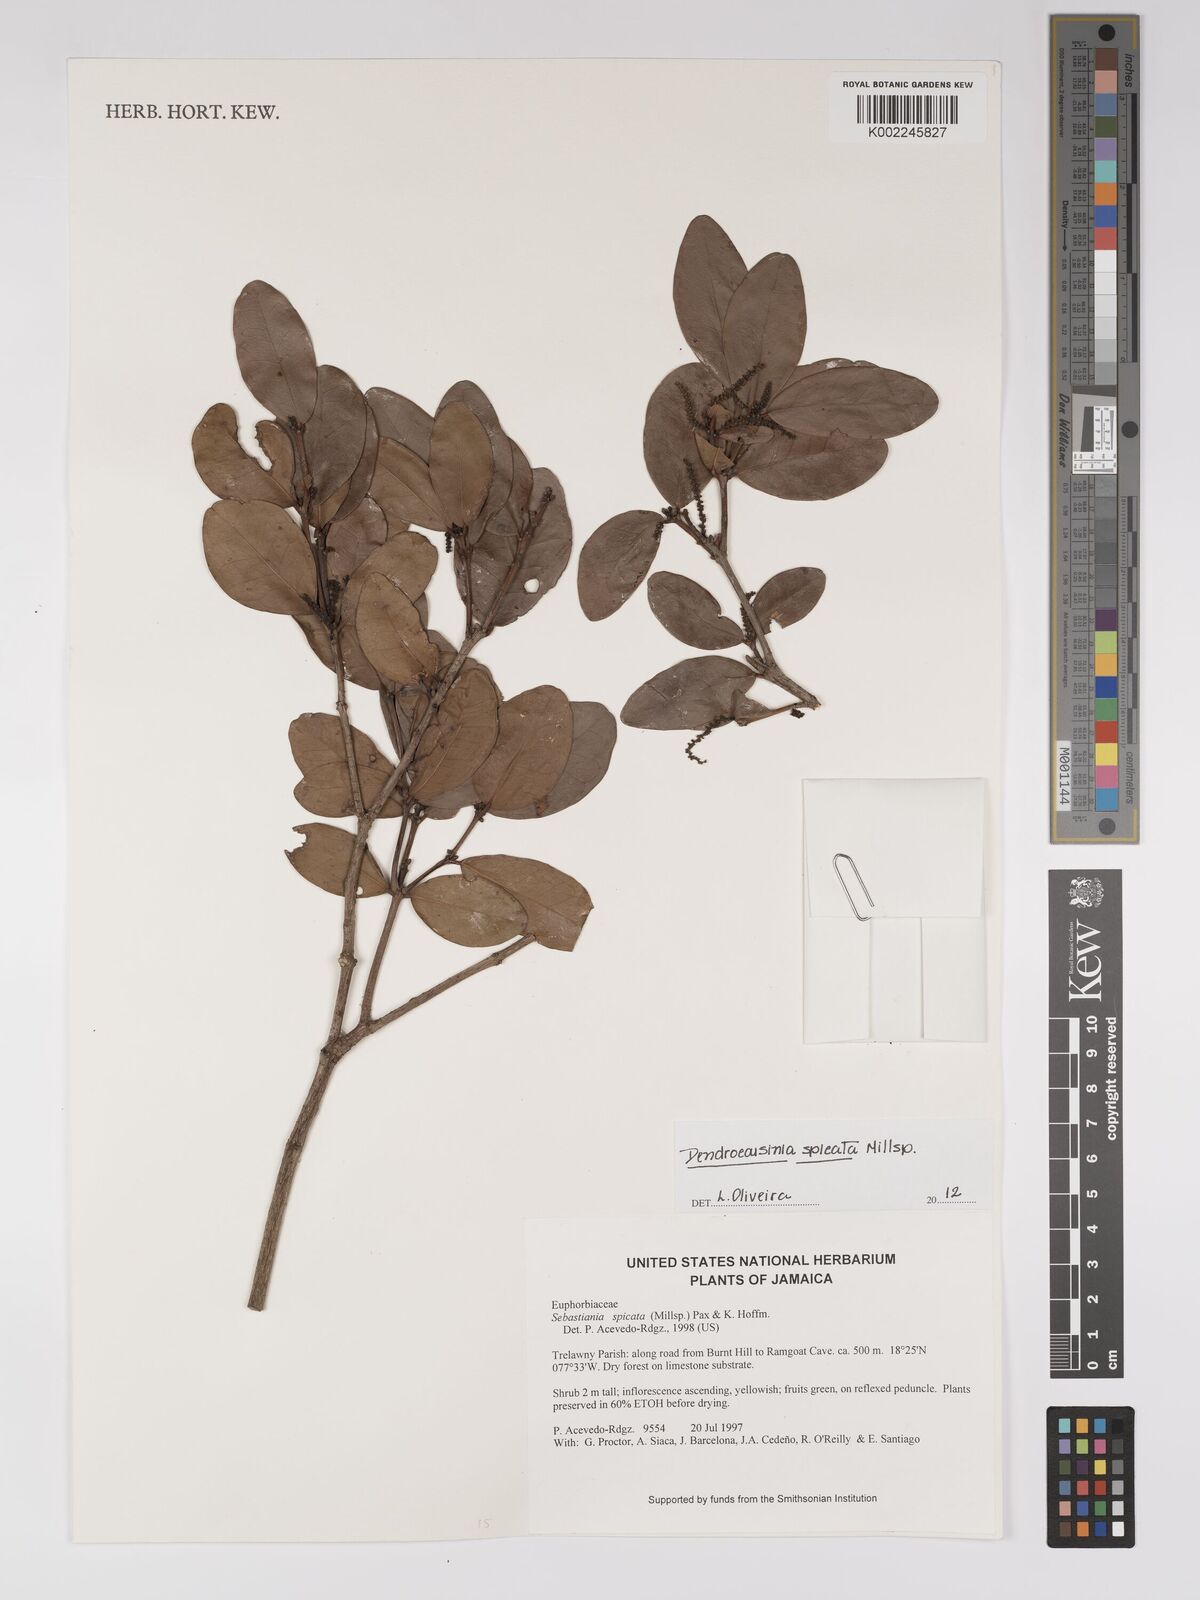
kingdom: Plantae
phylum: Tracheophyta
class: Magnoliopsida
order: Malpighiales
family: Euphorbiaceae
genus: Dendrocousinsia
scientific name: Dendrocousinsia spicata
